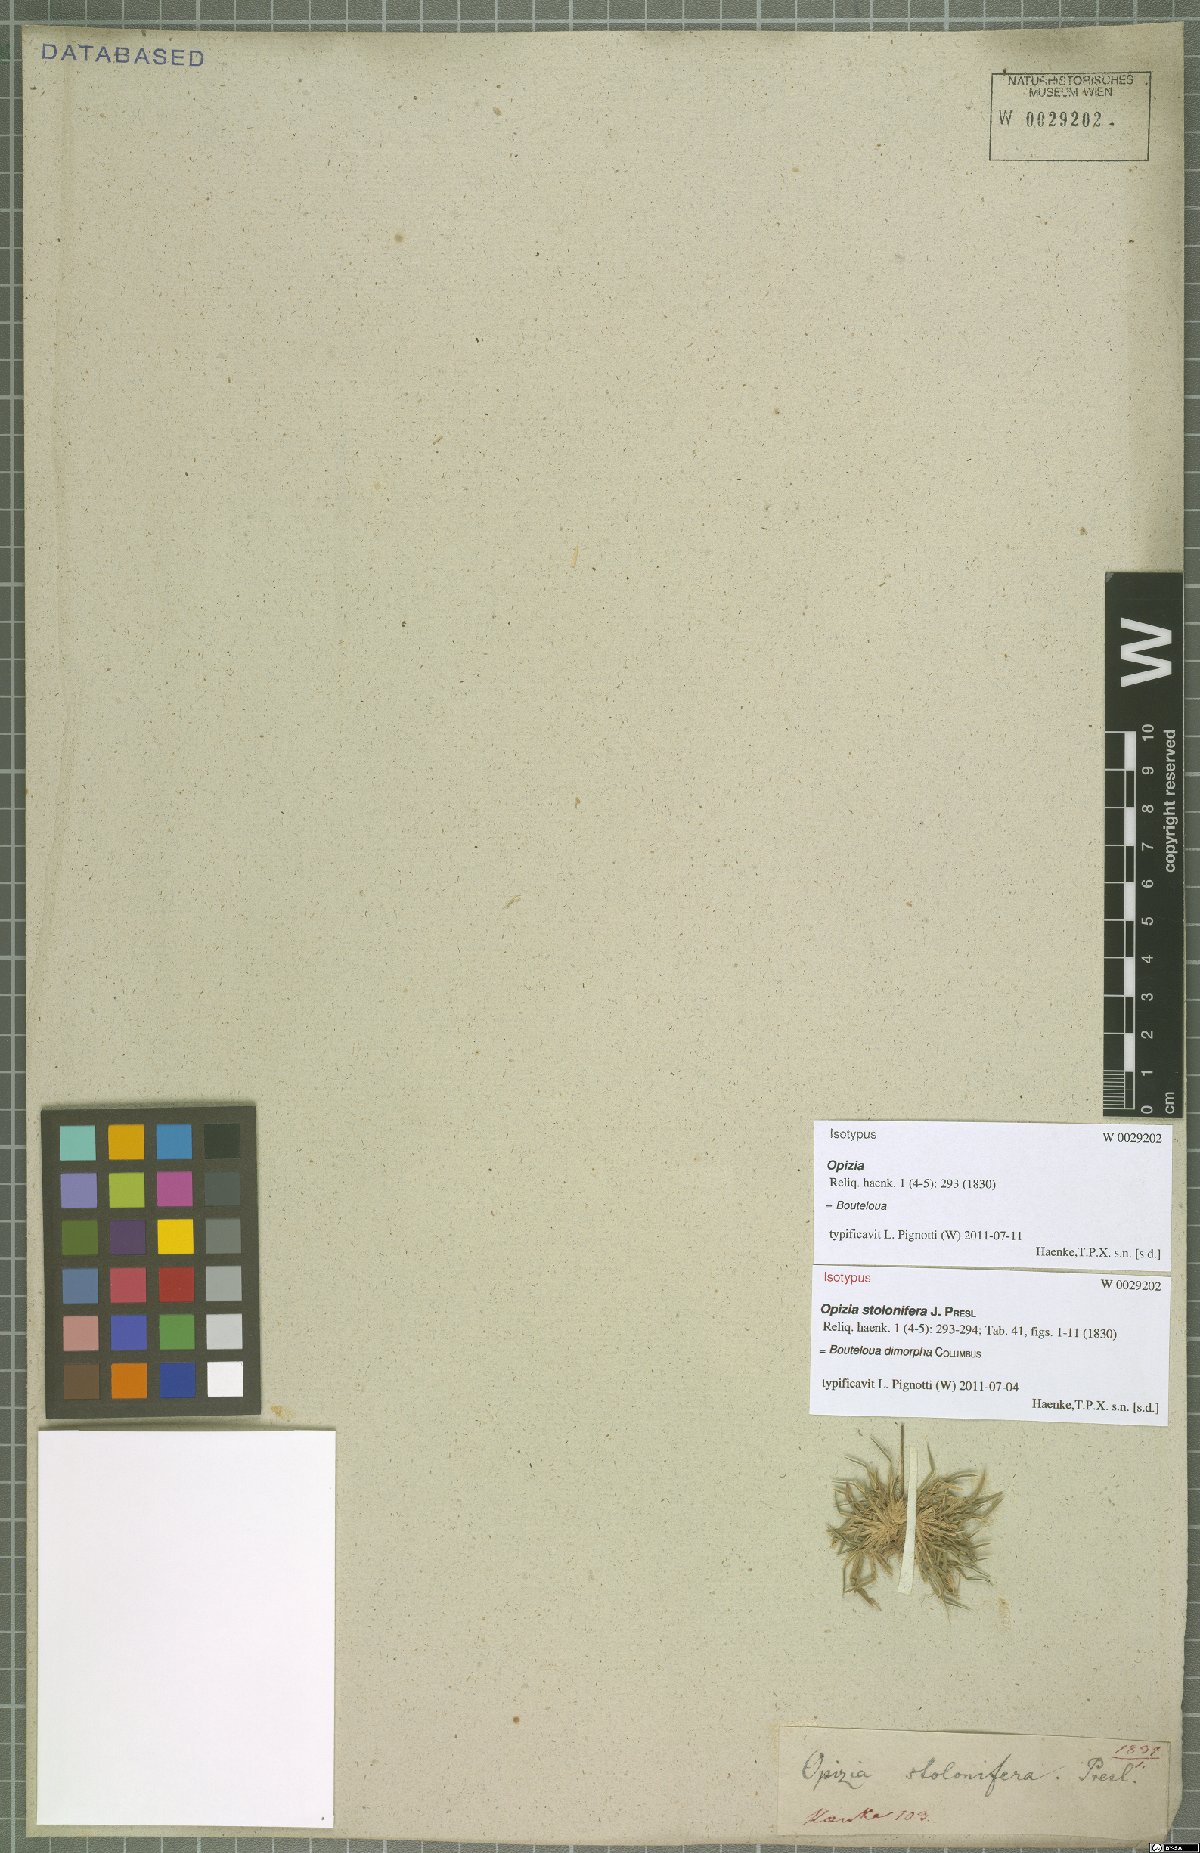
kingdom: Plantae
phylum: Tracheophyta
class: Liliopsida
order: Poales
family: Poaceae
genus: Bouteloua
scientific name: Bouteloua dimorpha
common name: Acapulco grass
